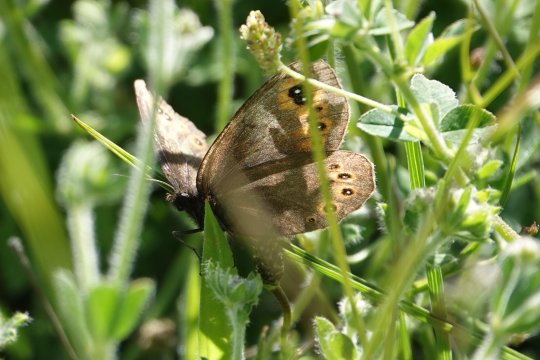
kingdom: Animalia
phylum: Arthropoda
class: Insecta
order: Lepidoptera
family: Nymphalidae
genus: Erebia
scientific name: Erebia manto
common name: Yellow-spotted Ringlet
